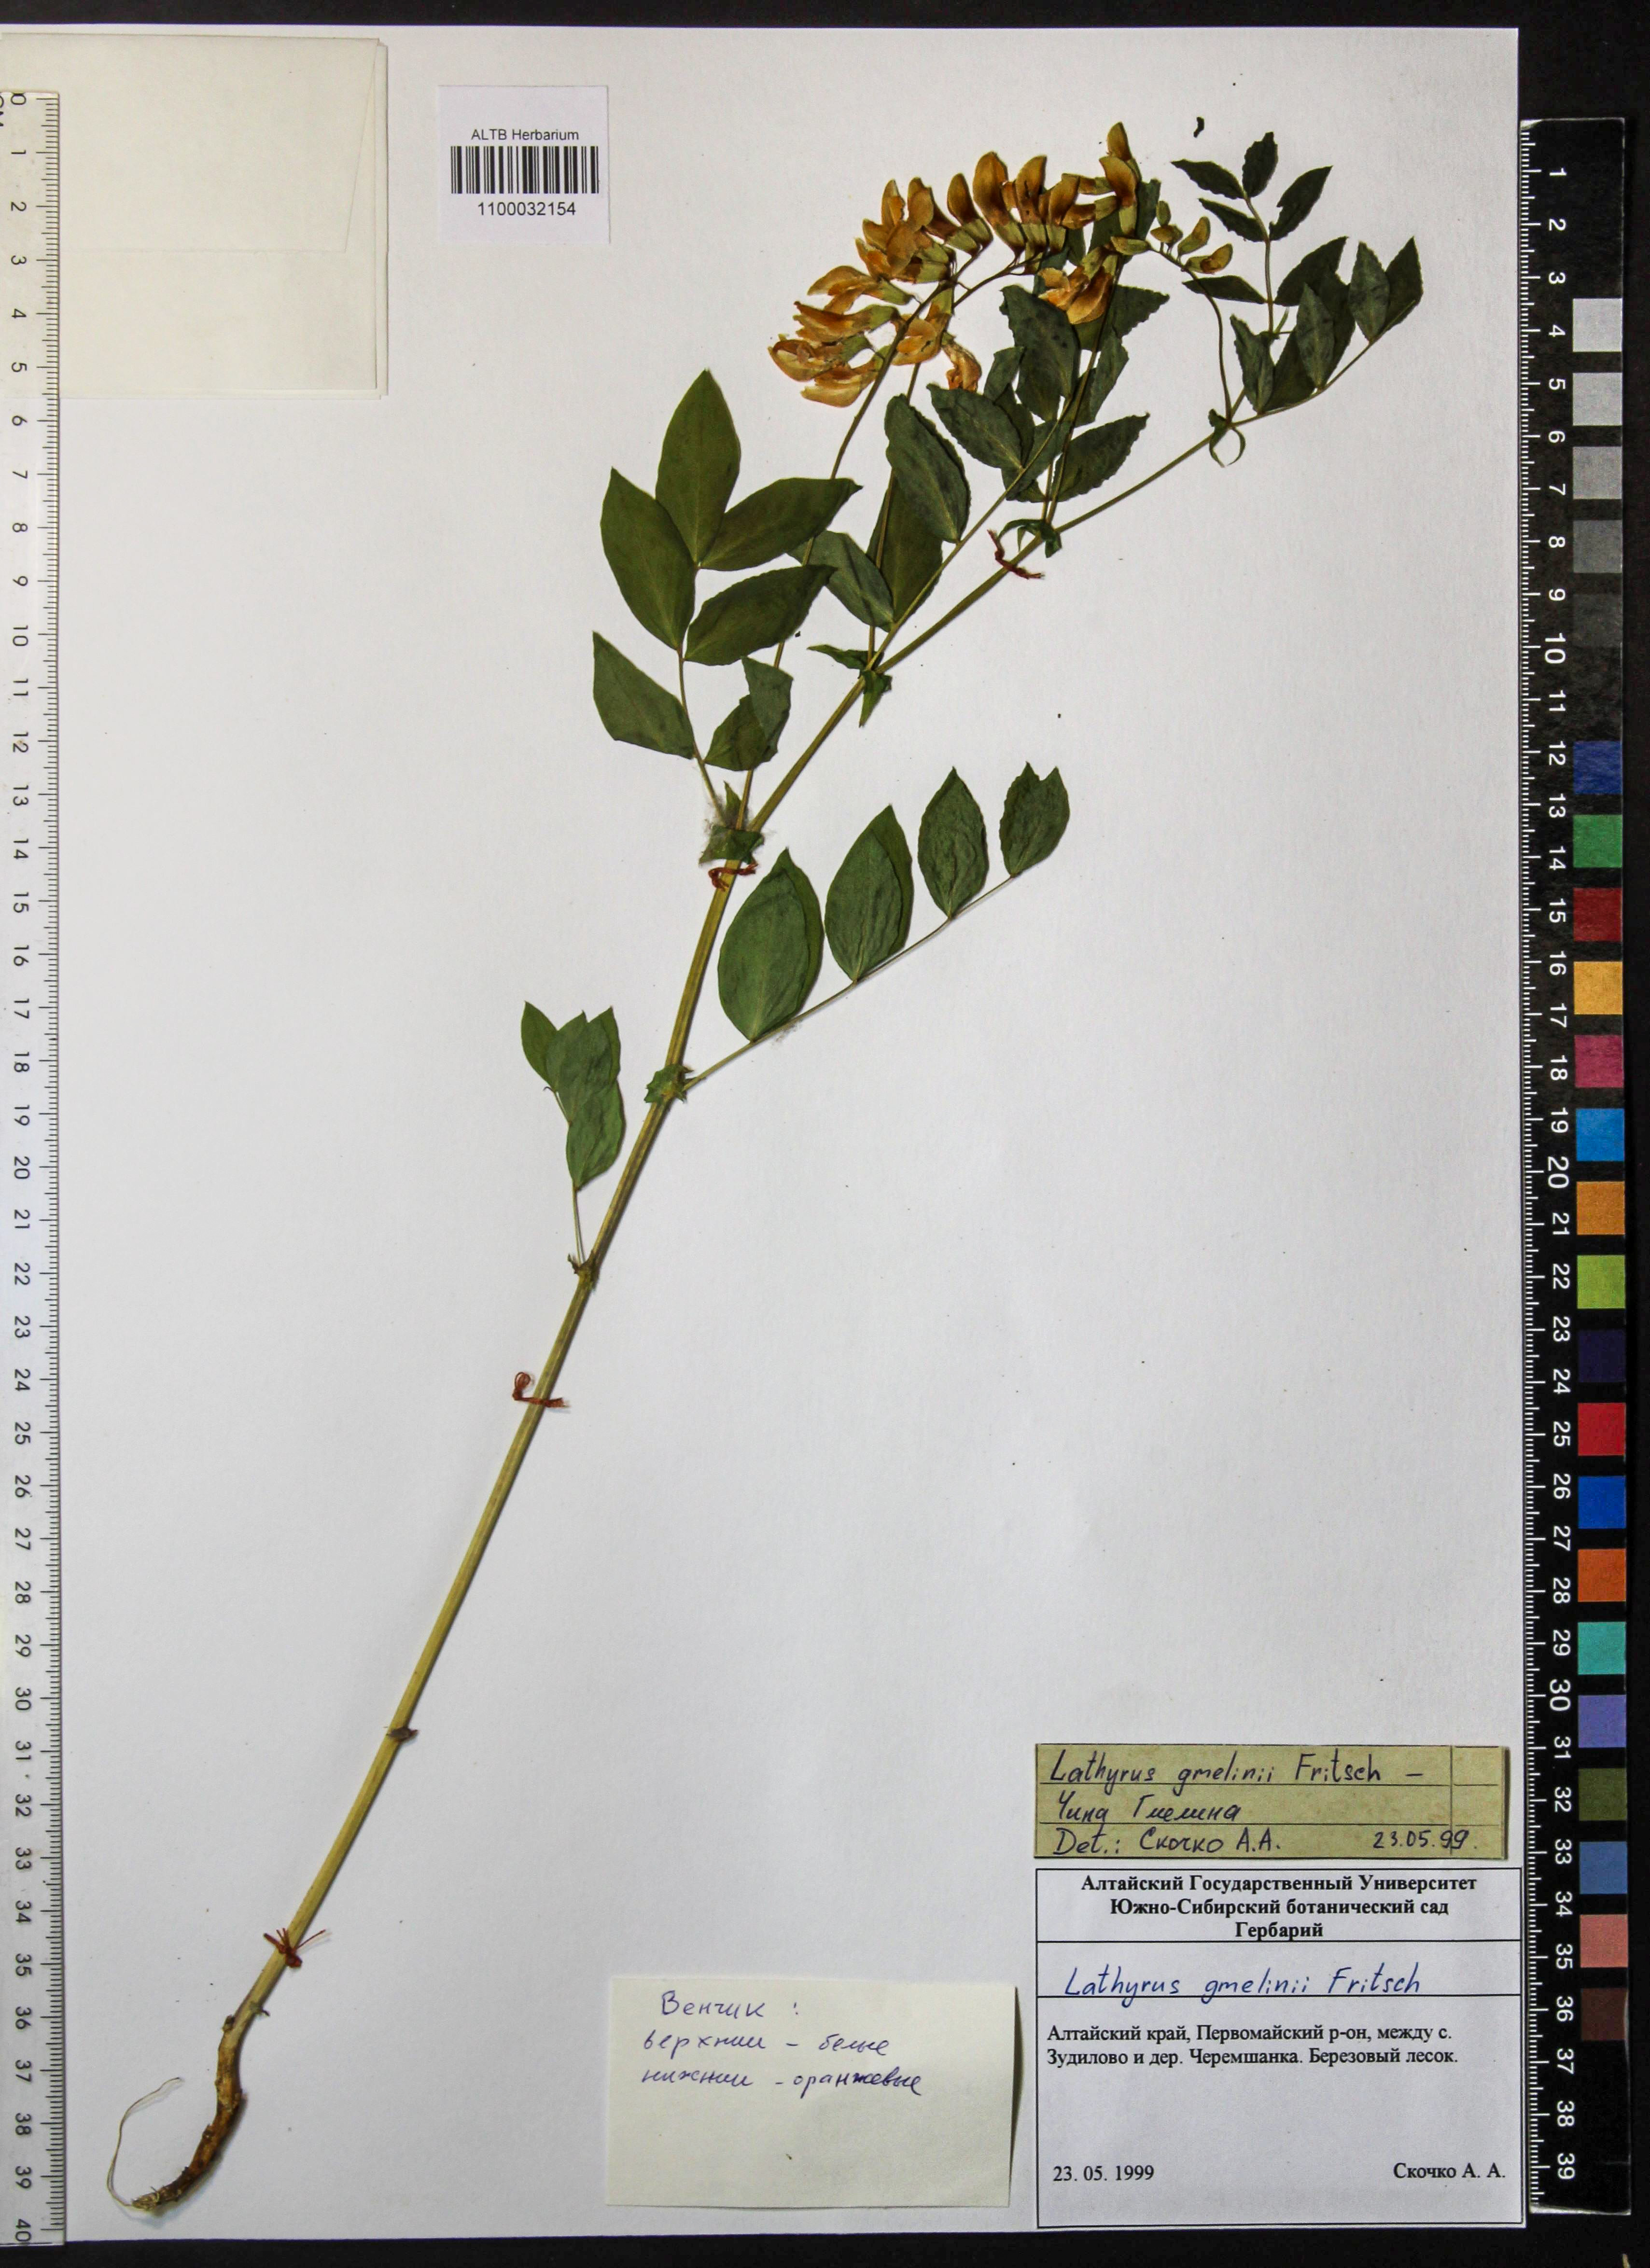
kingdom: Plantae
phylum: Tracheophyta
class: Magnoliopsida
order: Fabales
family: Fabaceae
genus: Lathyrus
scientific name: Lathyrus gmelinii
